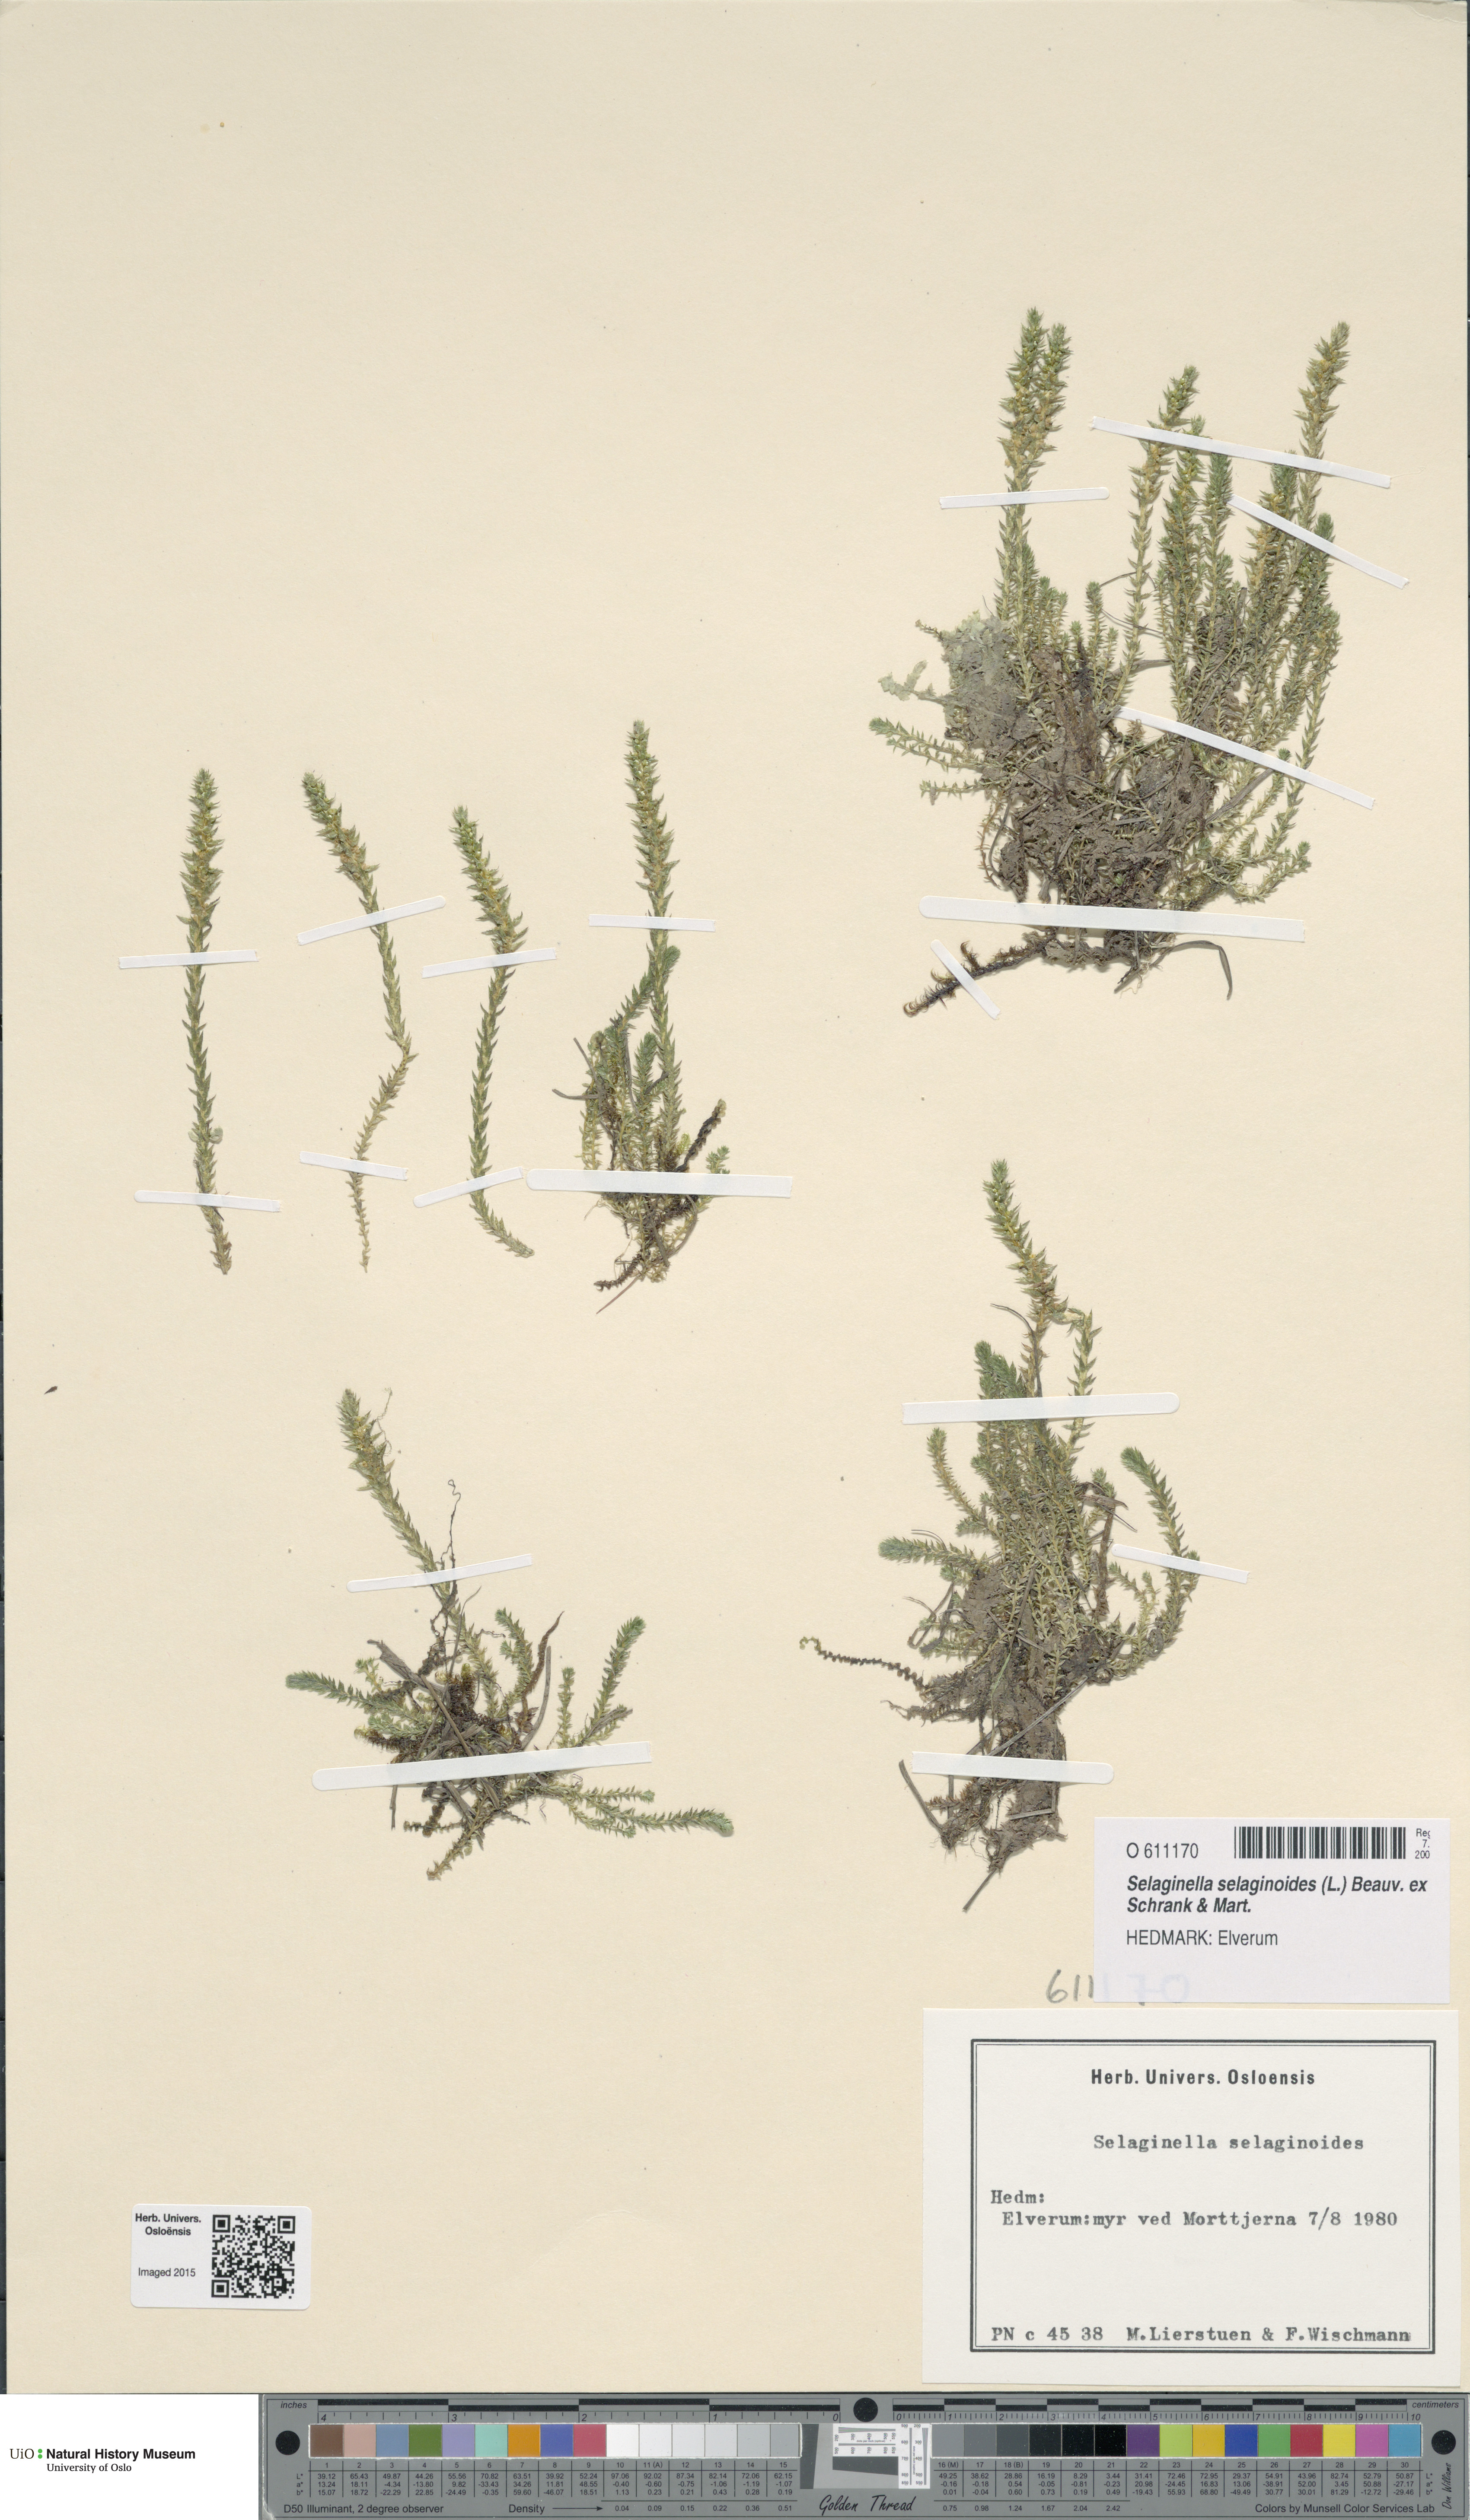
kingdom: Plantae
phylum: Tracheophyta
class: Lycopodiopsida
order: Selaginellales
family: Selaginellaceae
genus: Selaginella
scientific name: Selaginella selaginoides
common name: Prickly mountain-moss
